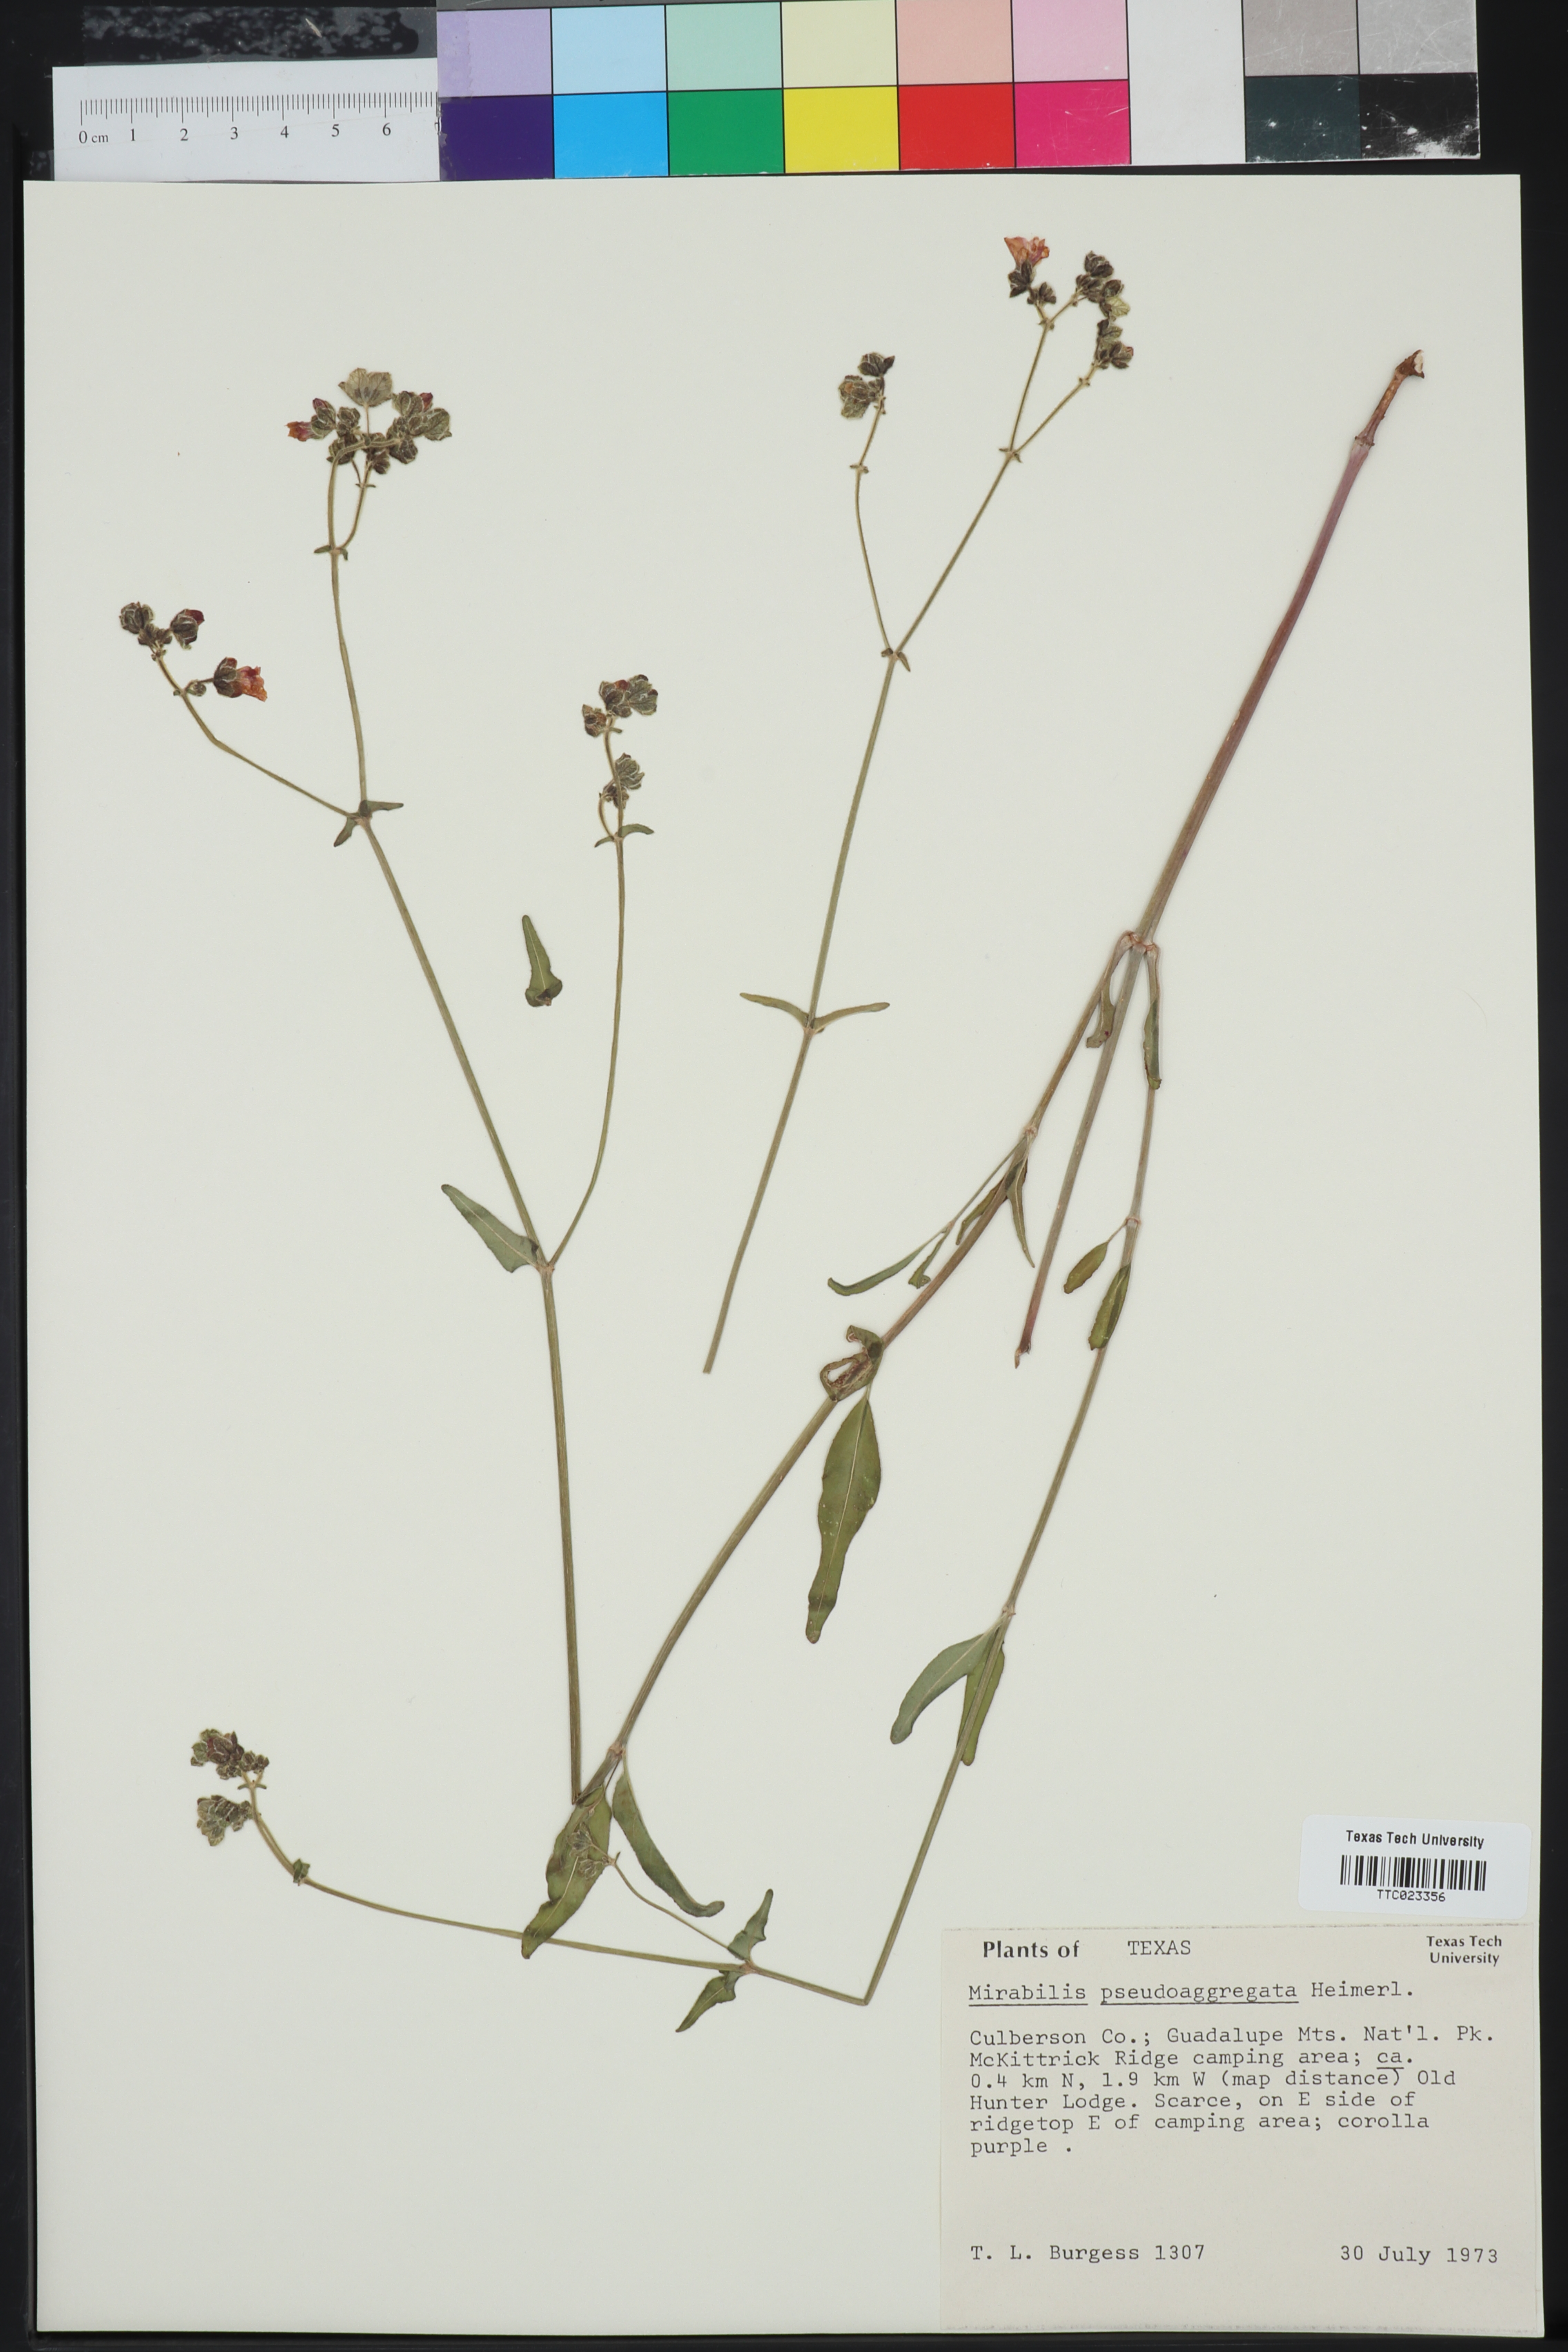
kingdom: Plantae
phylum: Tracheophyta
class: Magnoliopsida
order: Caryophyllales
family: Nyctaginaceae
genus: Mirabilis
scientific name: Mirabilis albida
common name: Hairy four-o'clock
